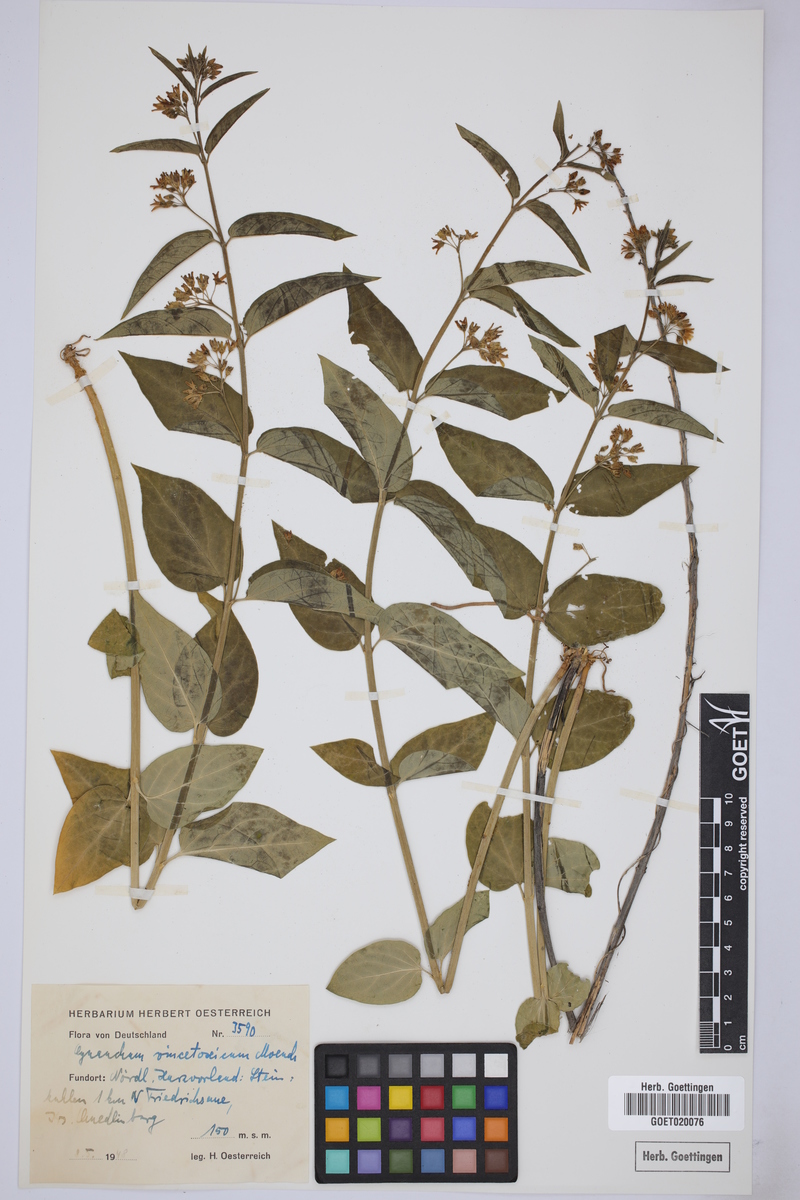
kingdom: Plantae
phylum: Tracheophyta
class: Magnoliopsida
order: Gentianales
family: Apocynaceae
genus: Vincetoxicum
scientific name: Vincetoxicum hirundinaria
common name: White swallowwort
